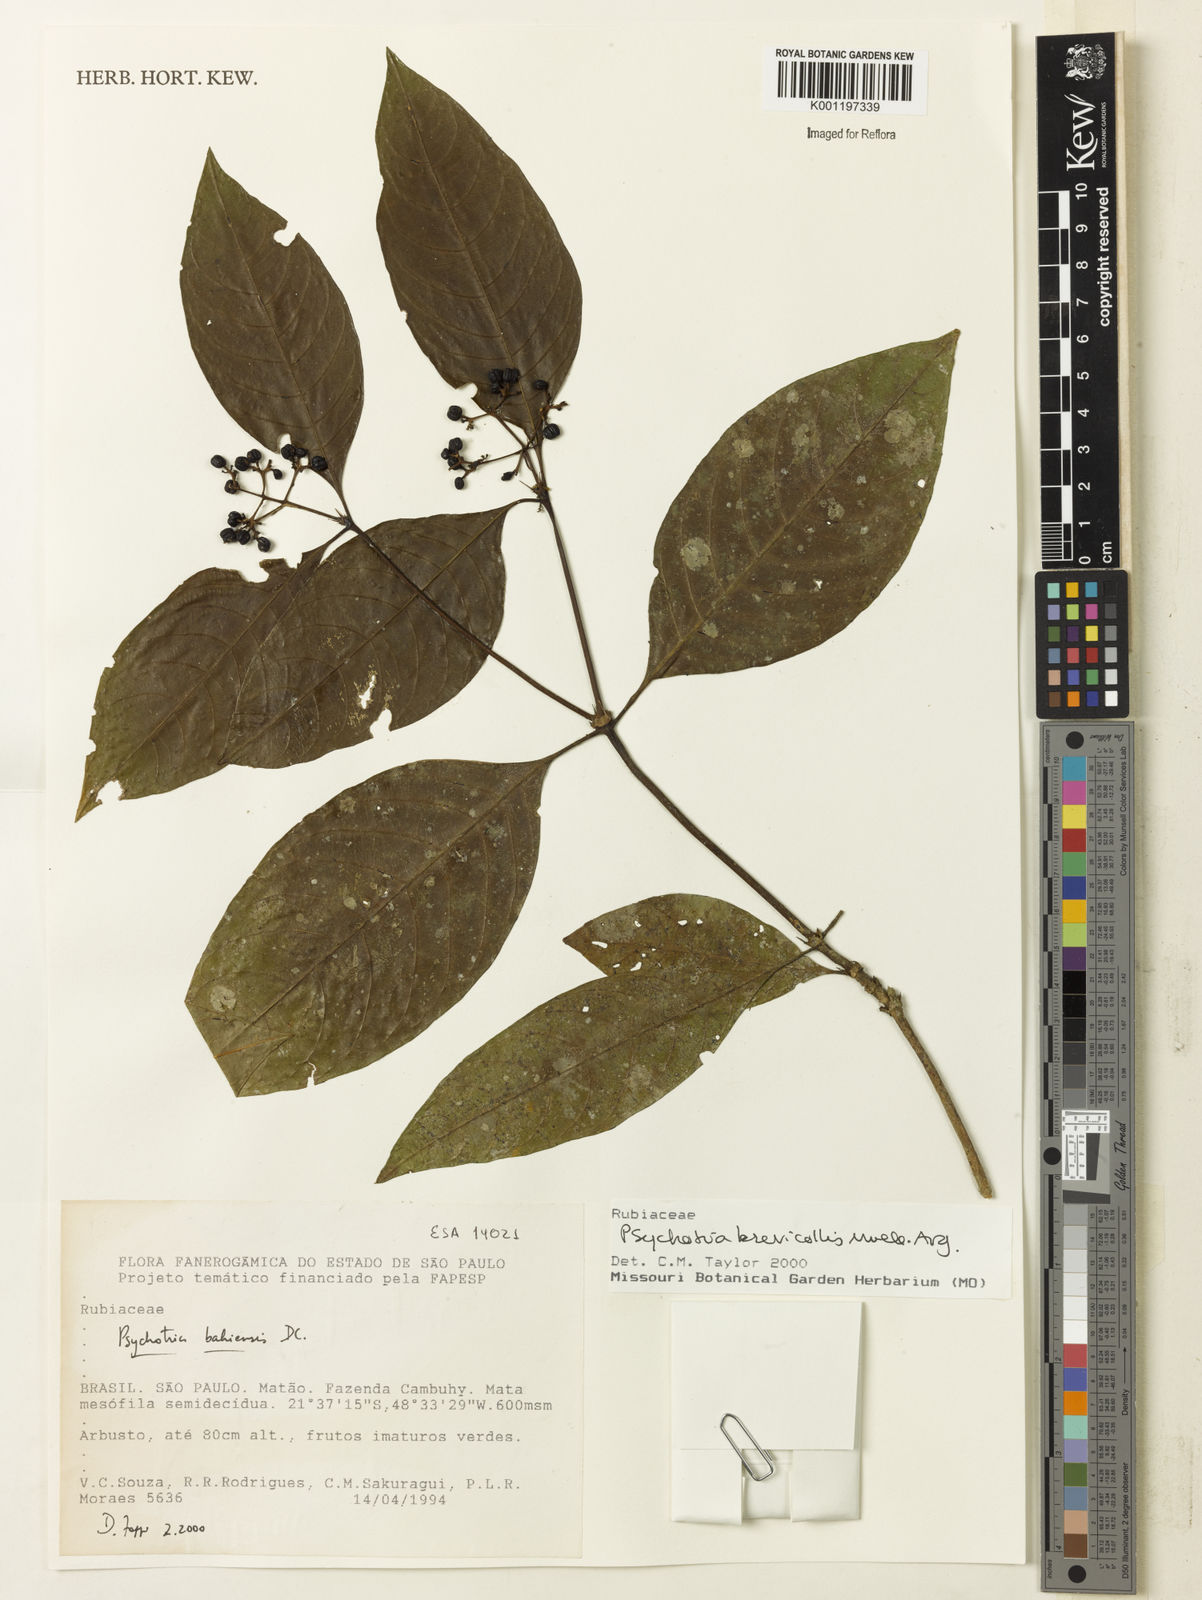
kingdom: Plantae
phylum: Tracheophyta
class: Magnoliopsida
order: Gentianales
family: Rubiaceae
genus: Psychotria
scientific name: Psychotria
